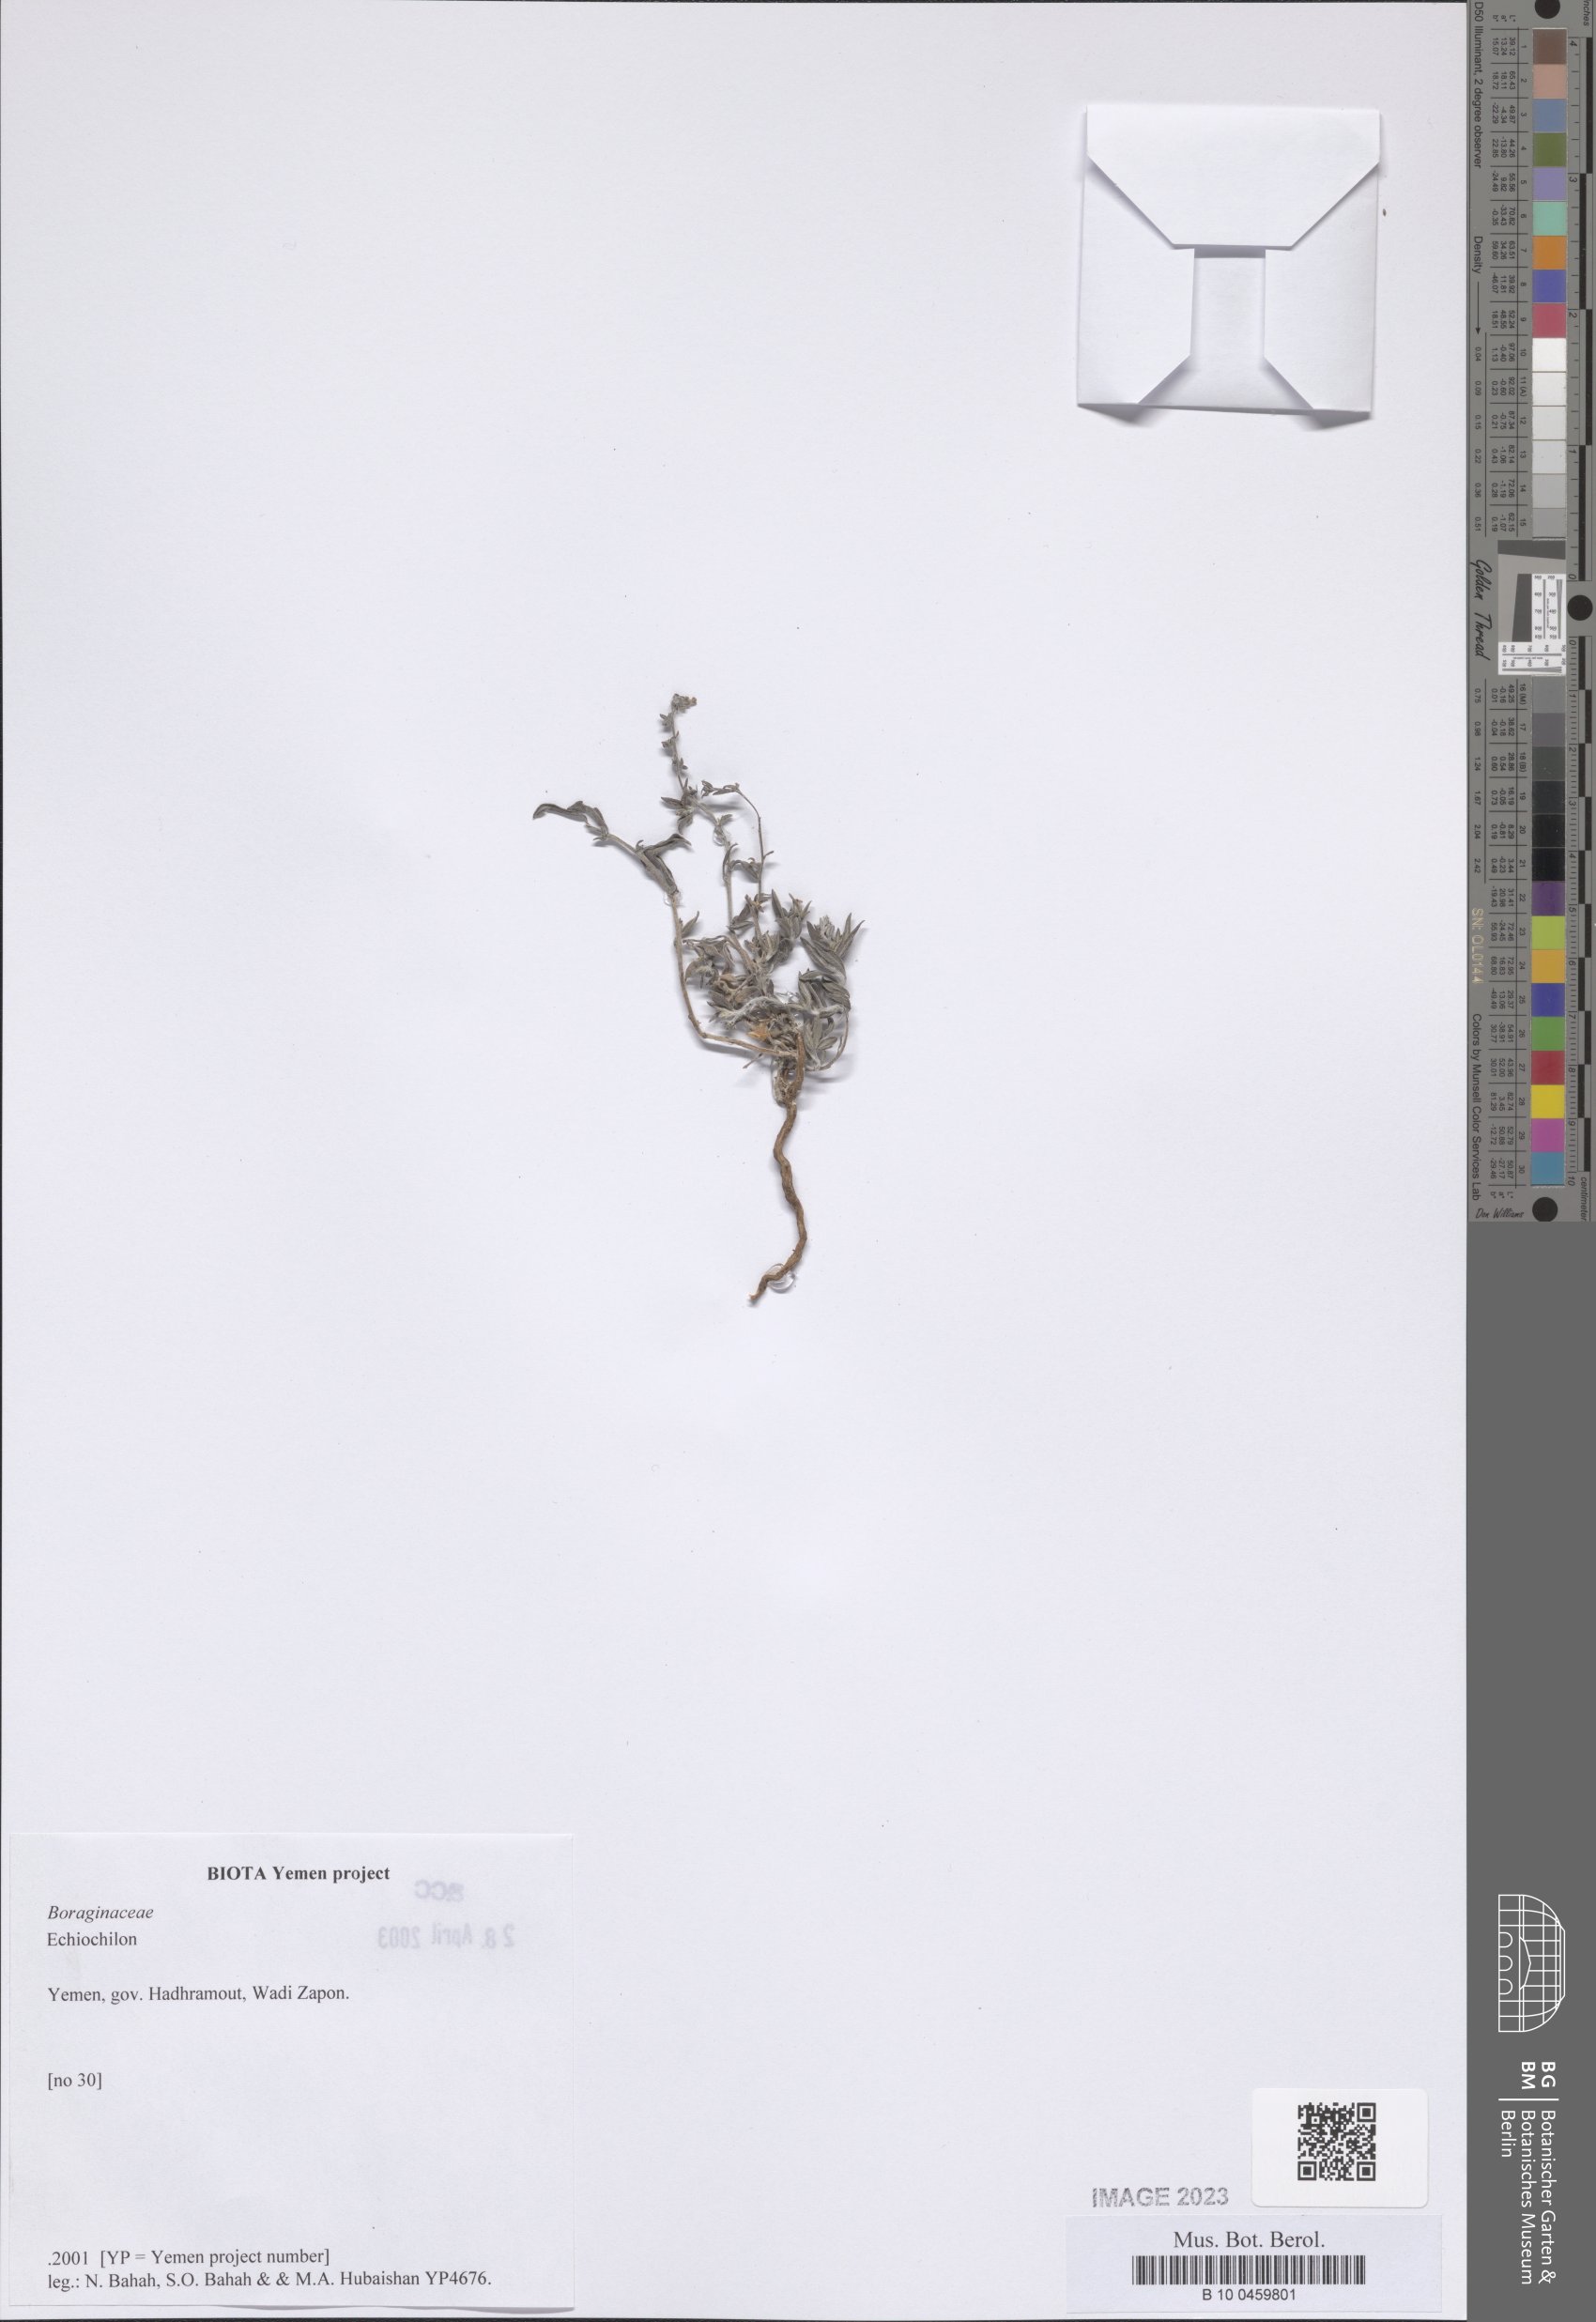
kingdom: Plantae
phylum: Tracheophyta
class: Magnoliopsida
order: Boraginales
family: Boraginaceae
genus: Echiochilon
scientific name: Echiochilon
